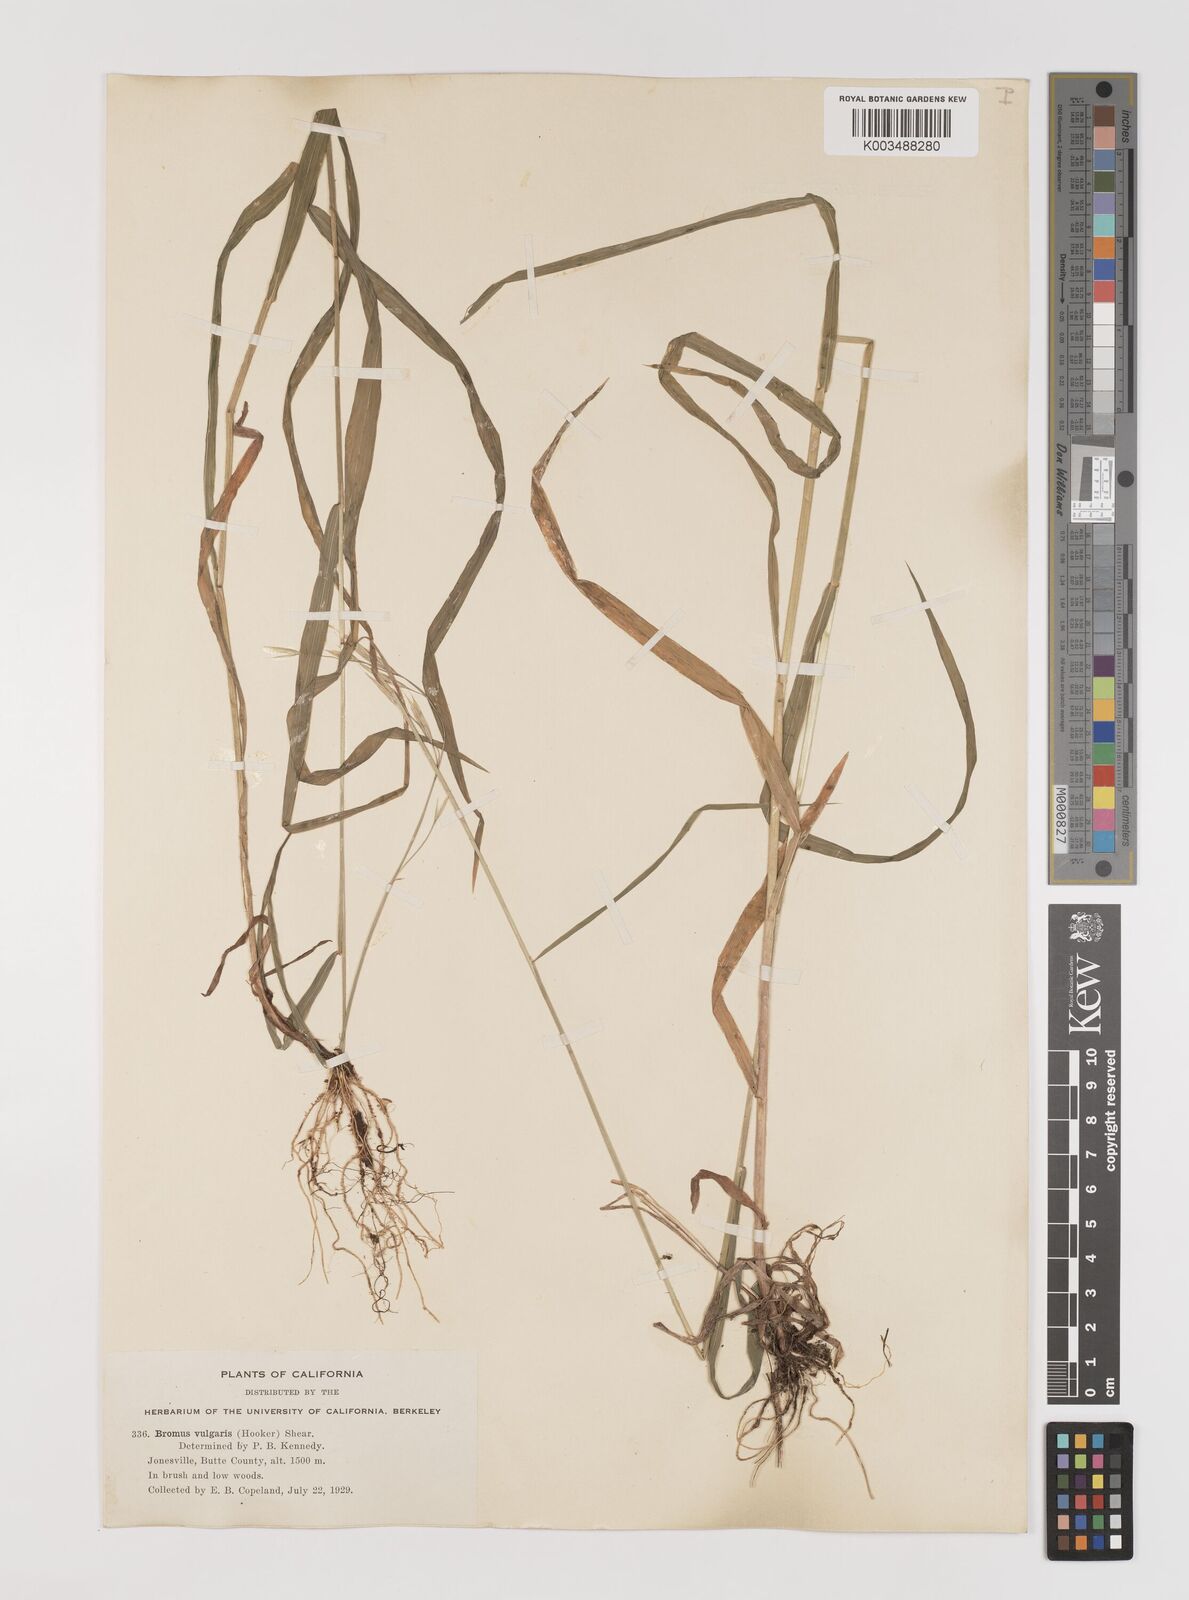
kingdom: Plantae
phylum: Tracheophyta
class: Liliopsida
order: Poales
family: Poaceae
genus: Bromus
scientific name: Bromus vulgaris
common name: Columbia brome
